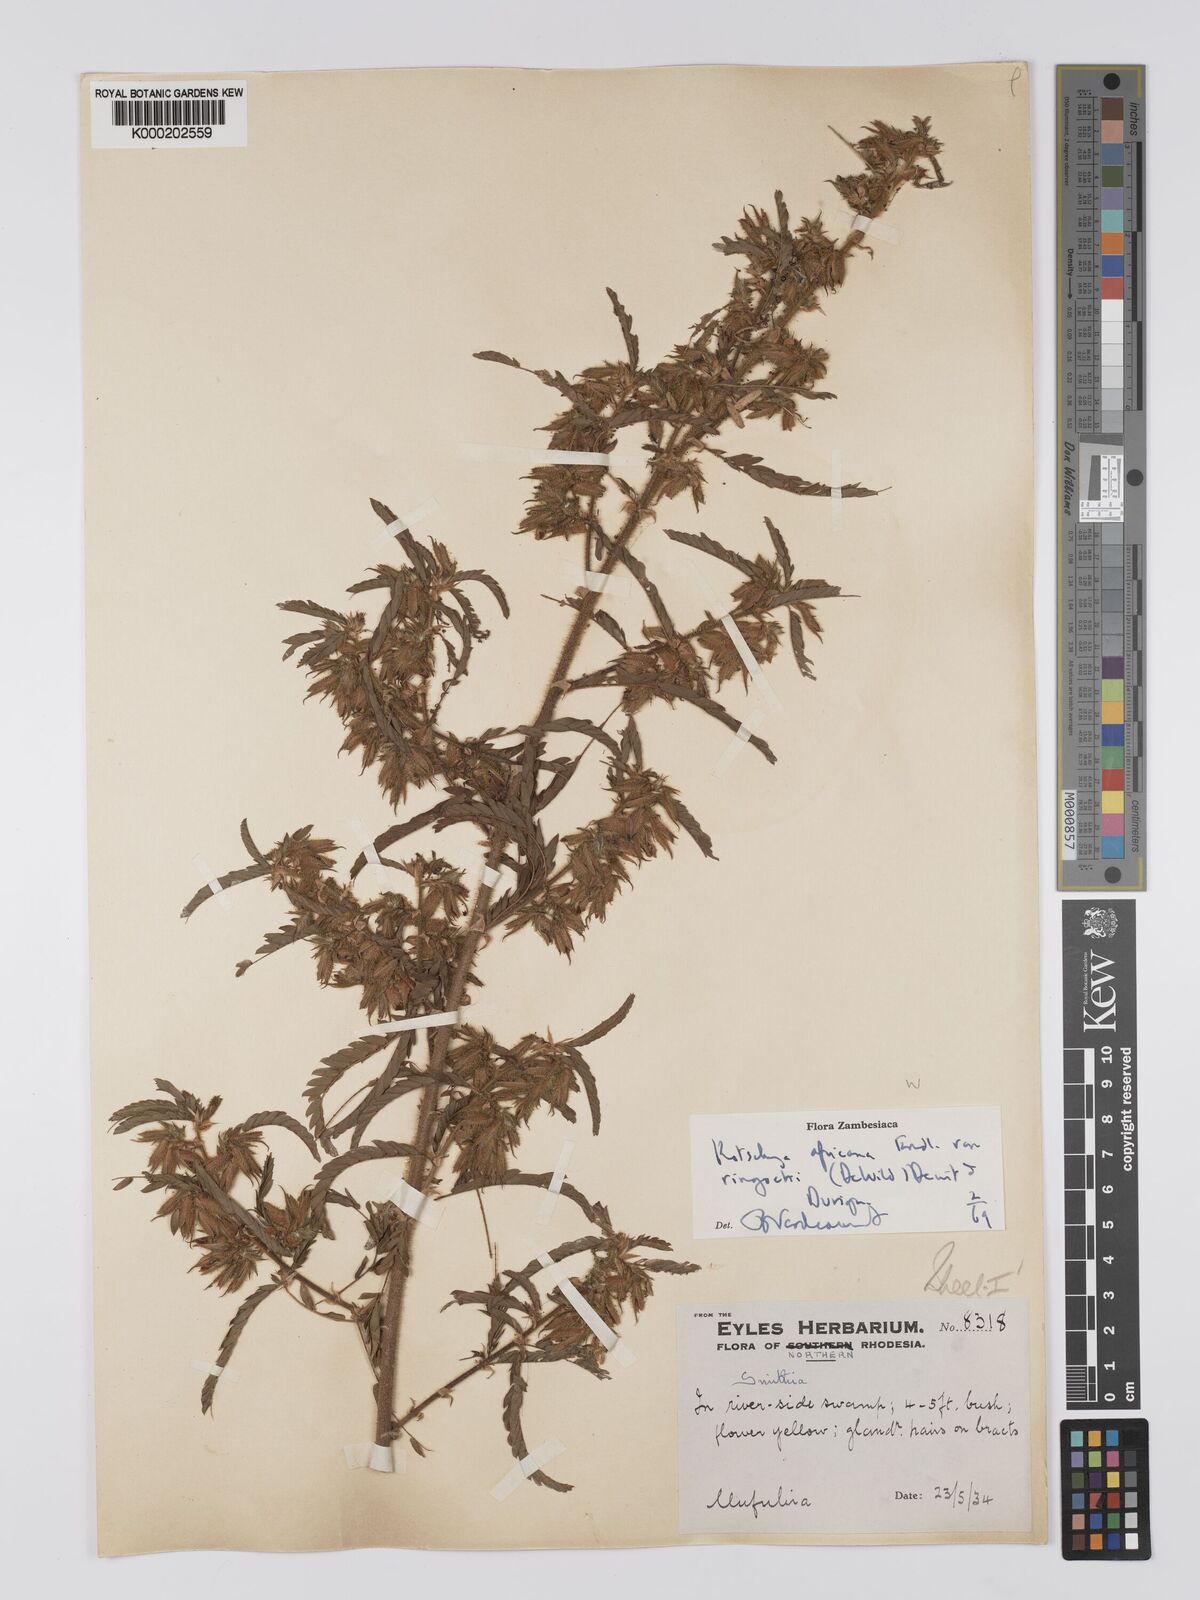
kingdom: Plantae
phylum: Tracheophyta
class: Magnoliopsida
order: Fabales
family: Fabaceae
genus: Kotschya
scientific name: Kotschya africana
